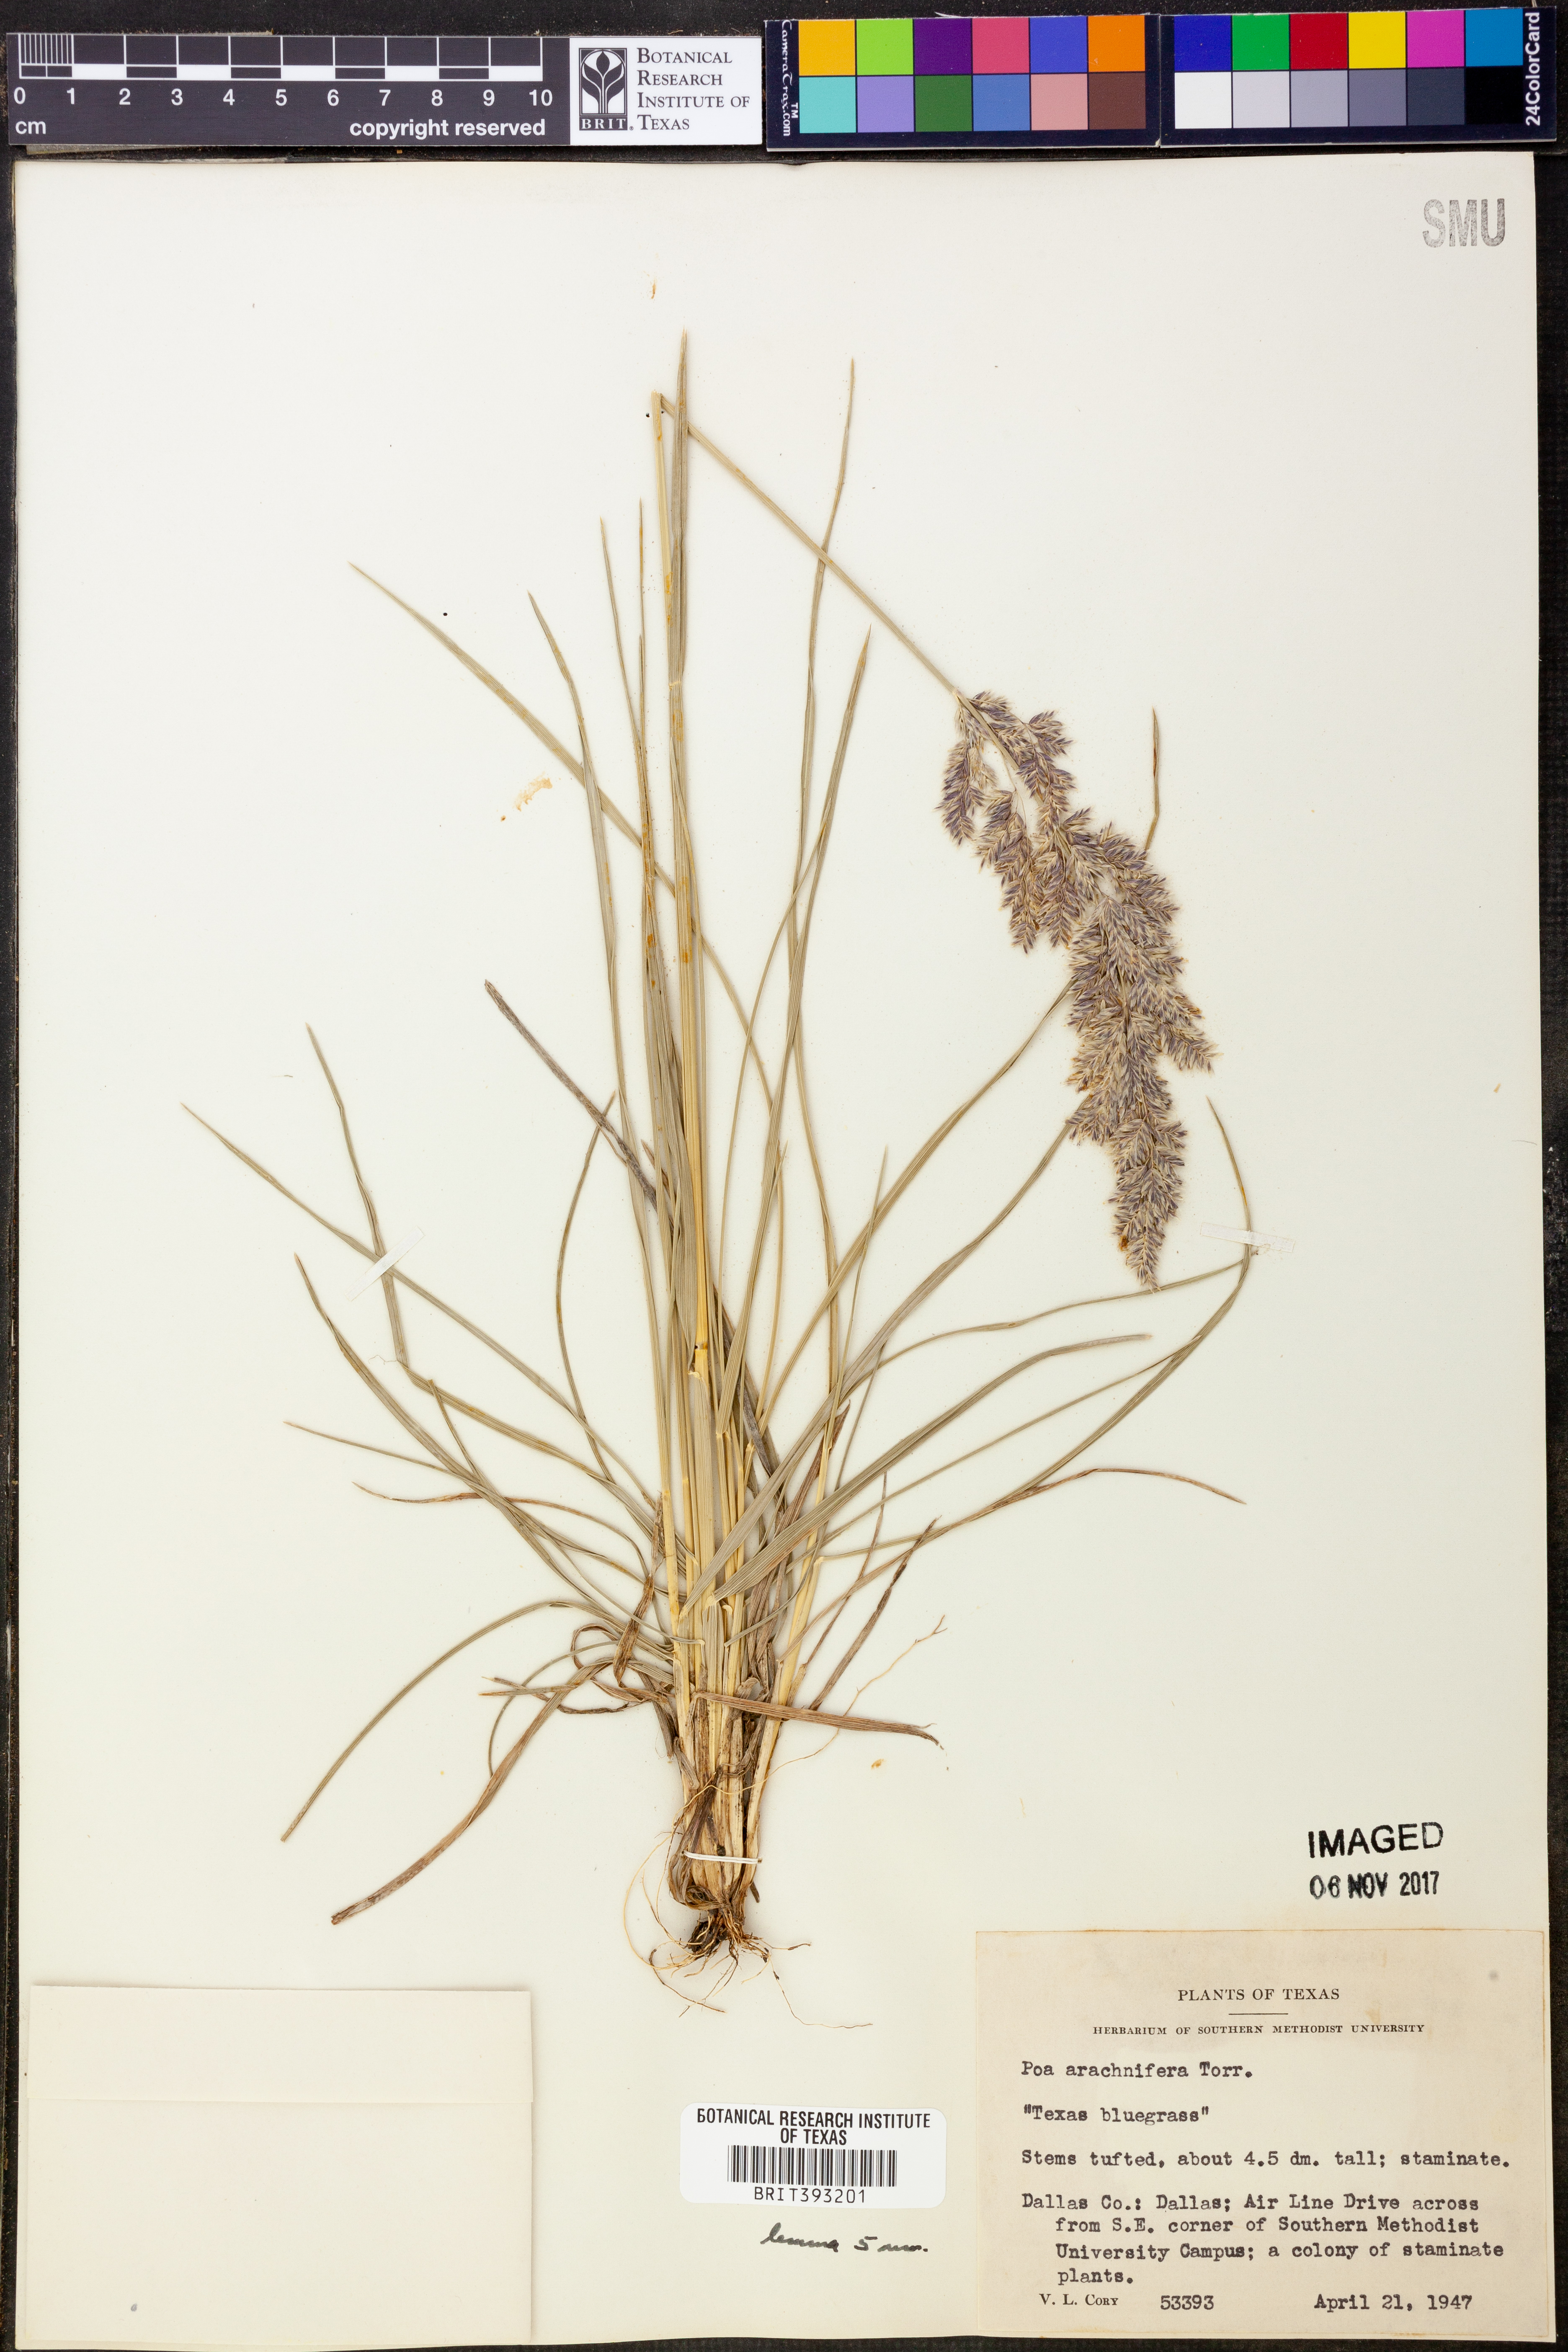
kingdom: Plantae
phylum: Tracheophyta
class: Liliopsida
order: Poales
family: Poaceae
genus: Poa
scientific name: Poa arachnifera
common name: Texas bluegrass
